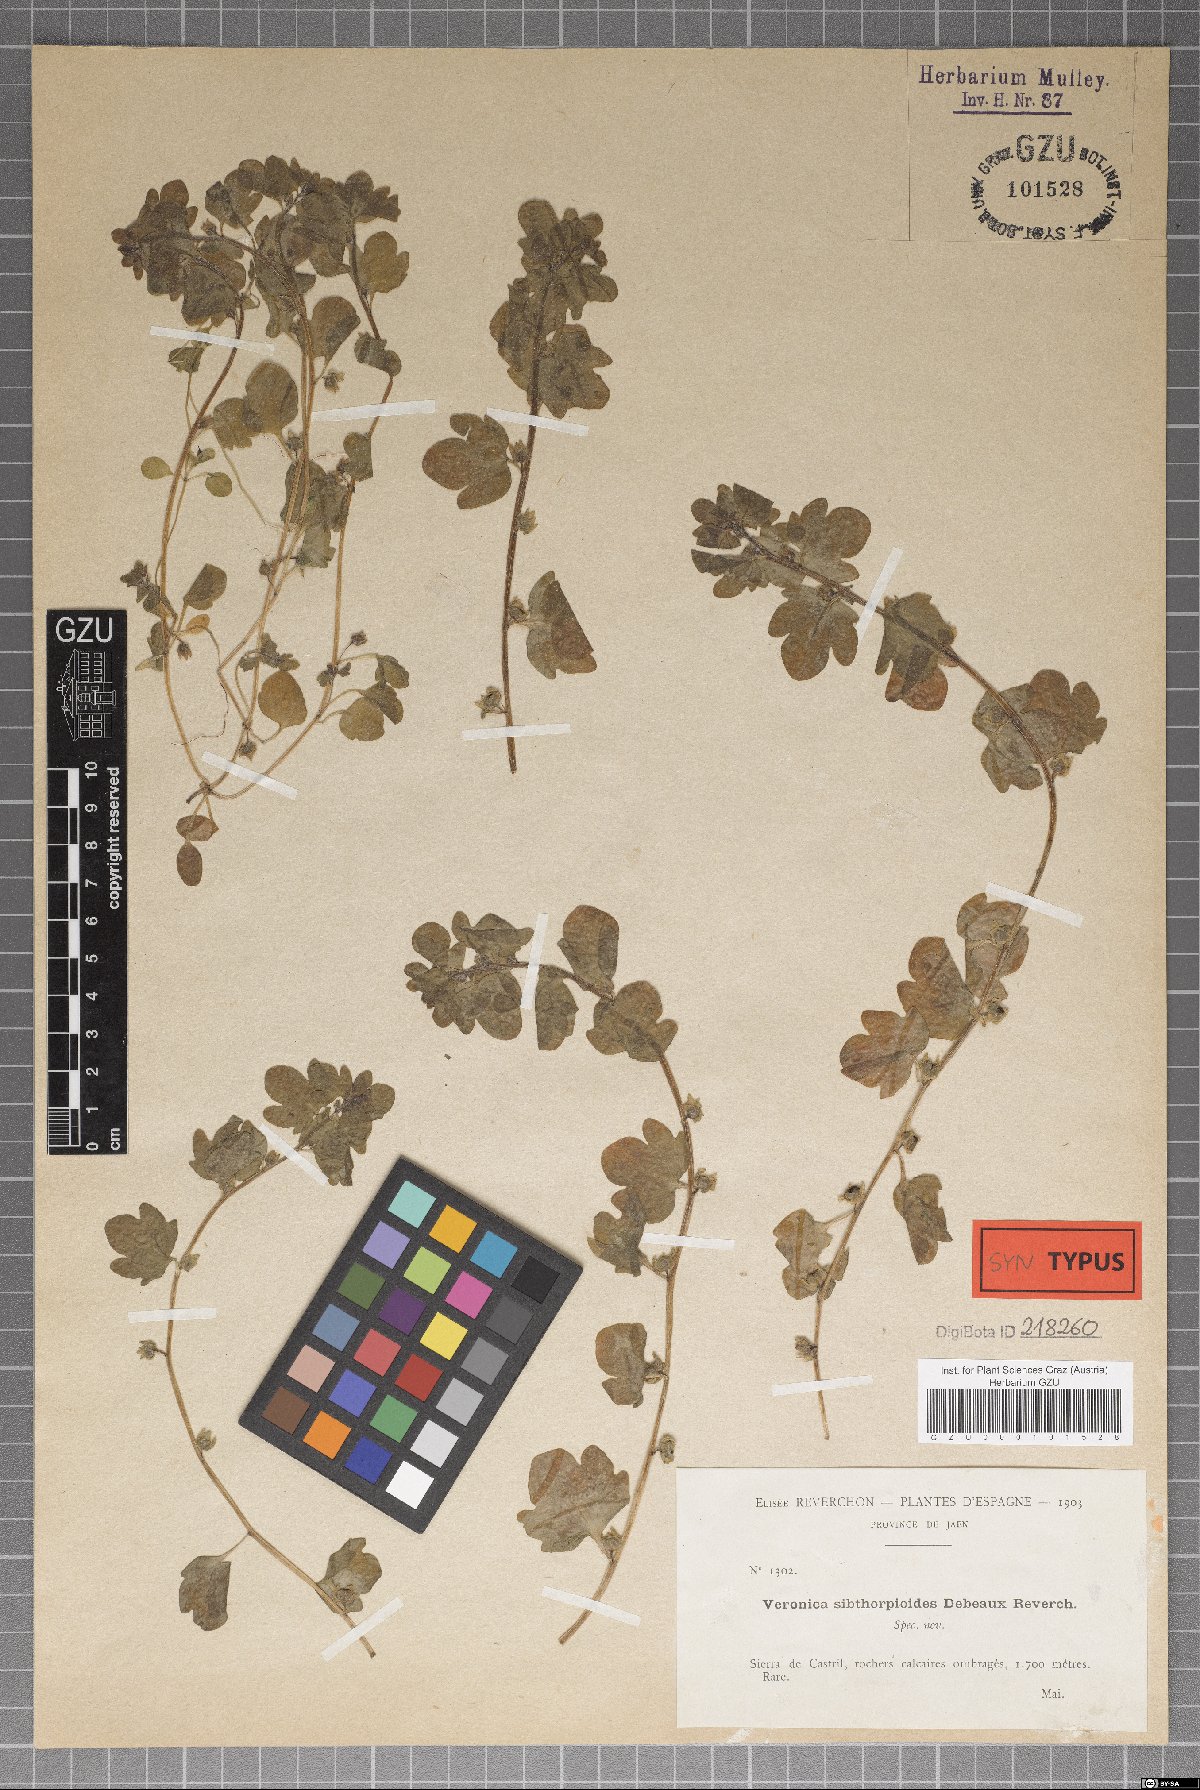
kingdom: Plantae
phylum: Tracheophyta
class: Magnoliopsida
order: Lamiales
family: Plantaginaceae
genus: Veronica
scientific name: Veronica sibthorpioides
